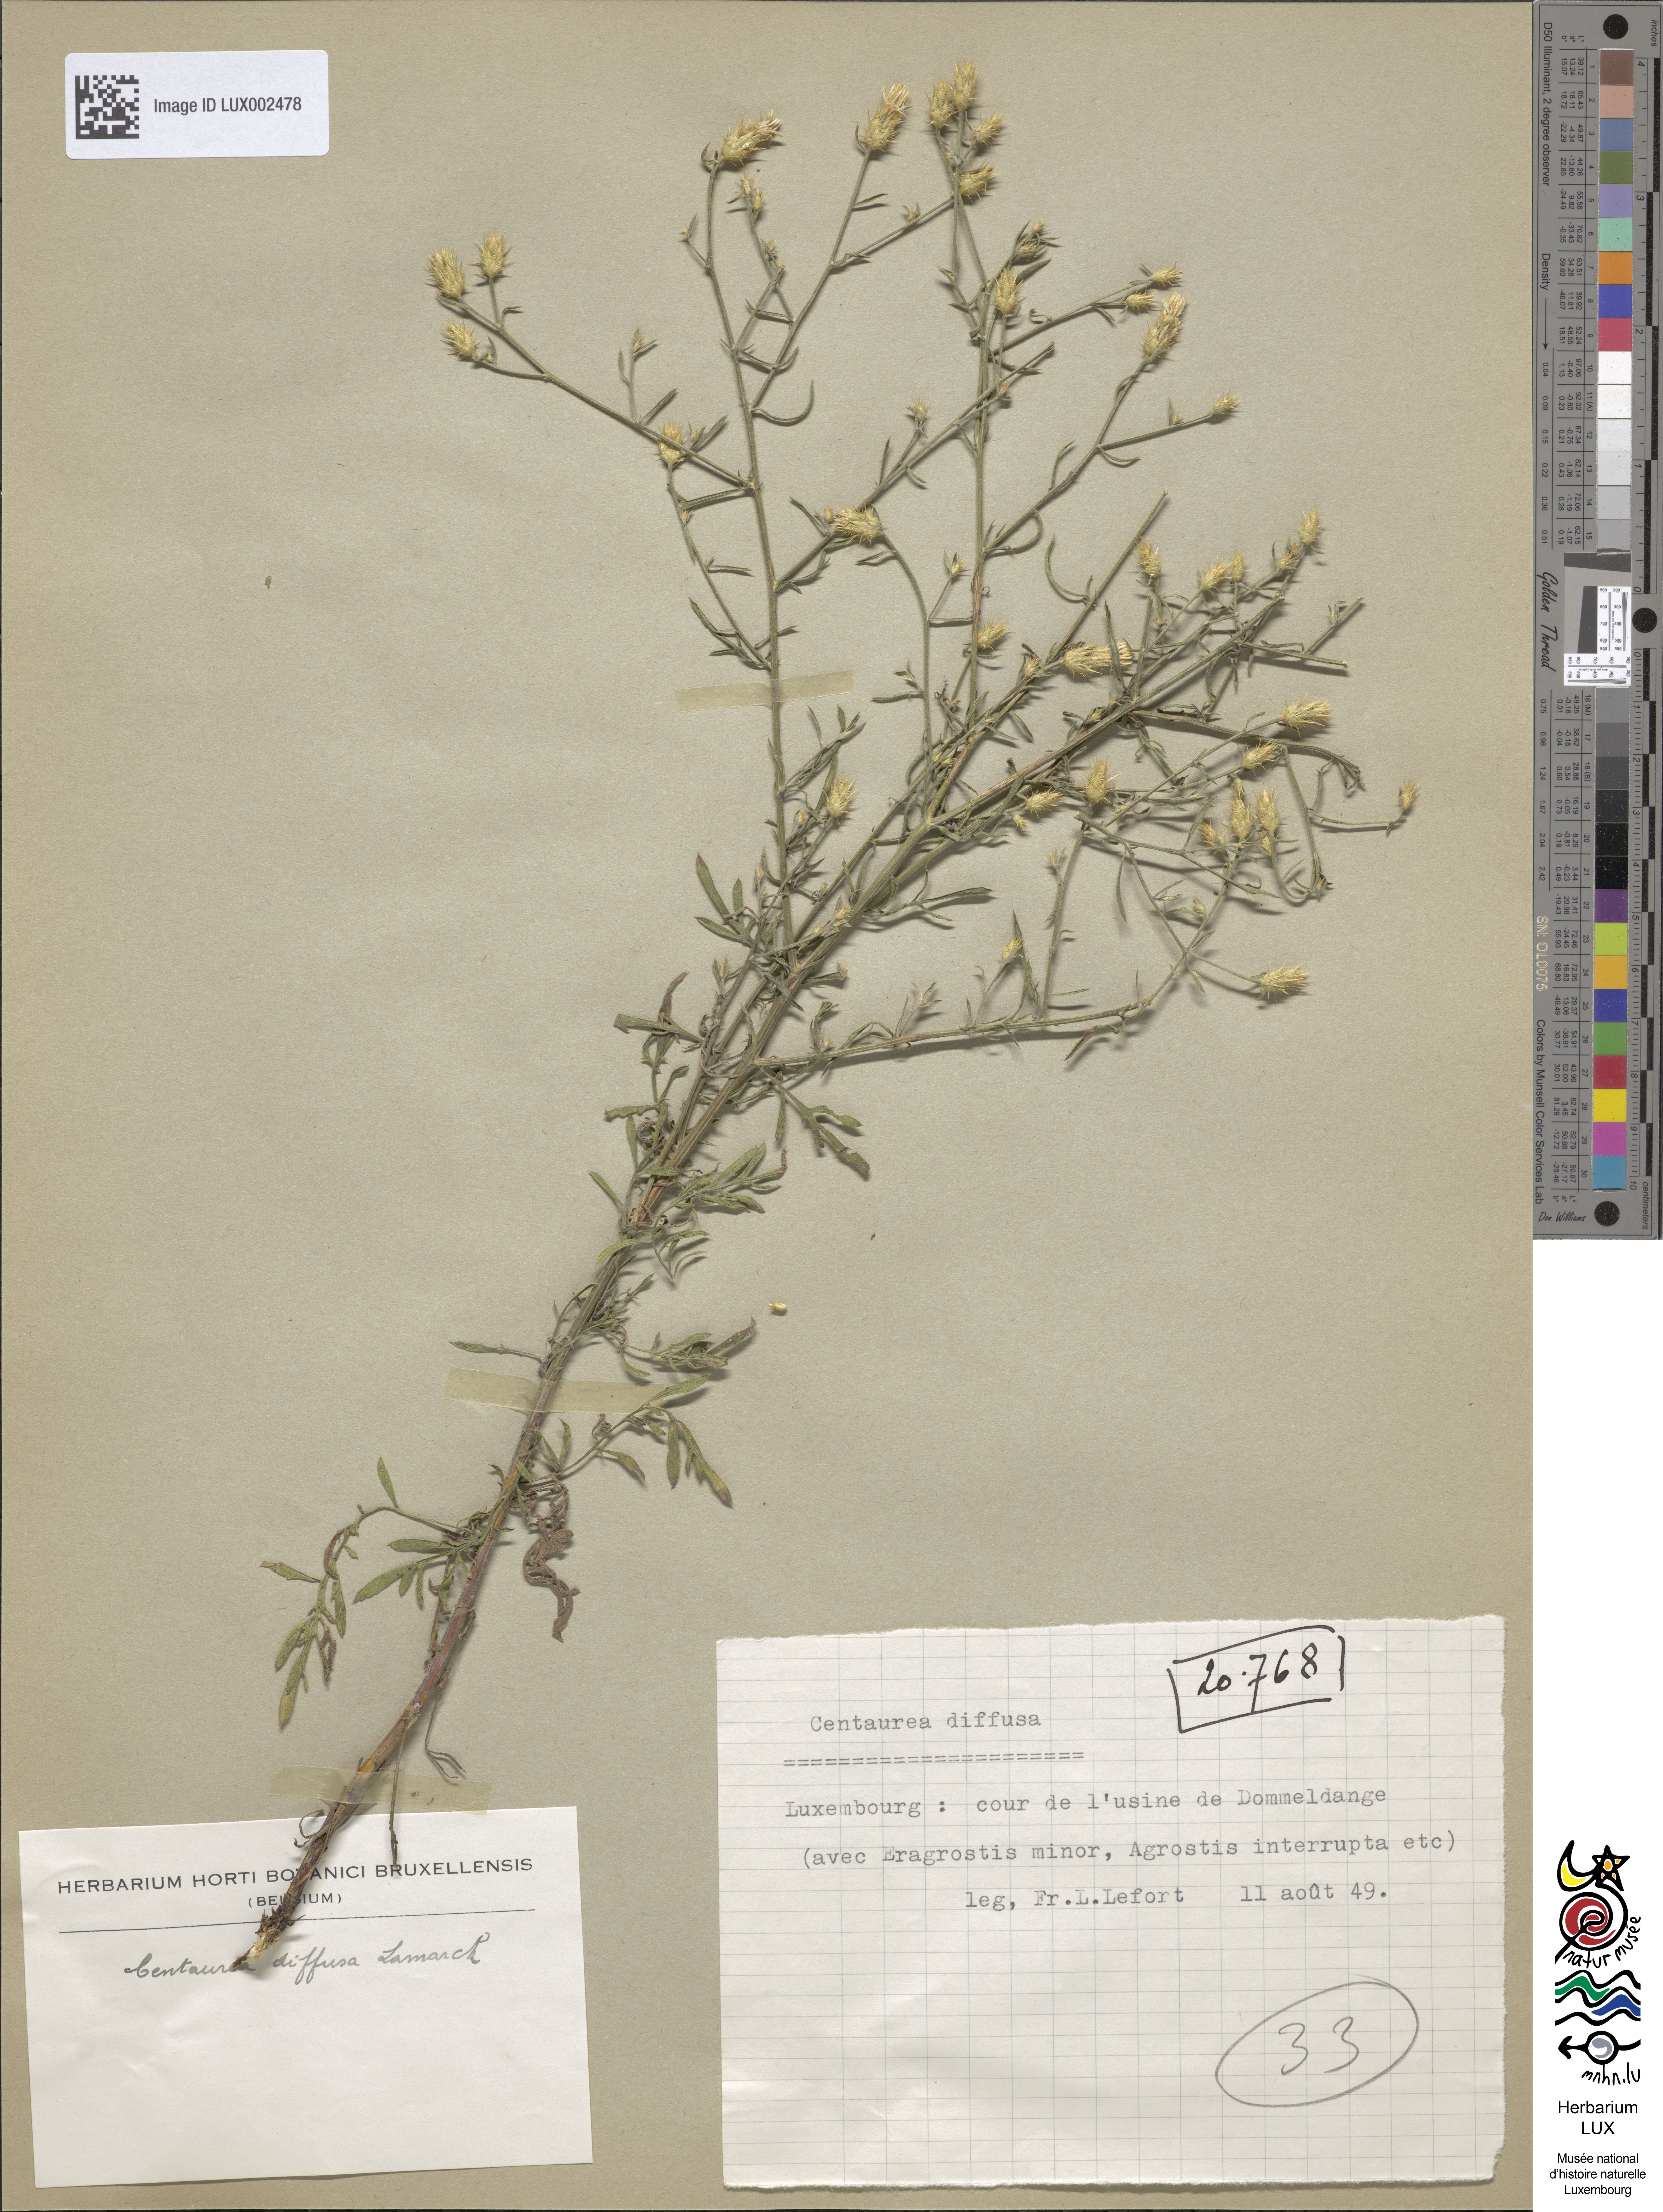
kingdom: Plantae
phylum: Tracheophyta
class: Magnoliopsida
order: Asterales
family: Asteraceae
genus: Centaurea
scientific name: Centaurea diffusa
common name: Diffuse knapweed
